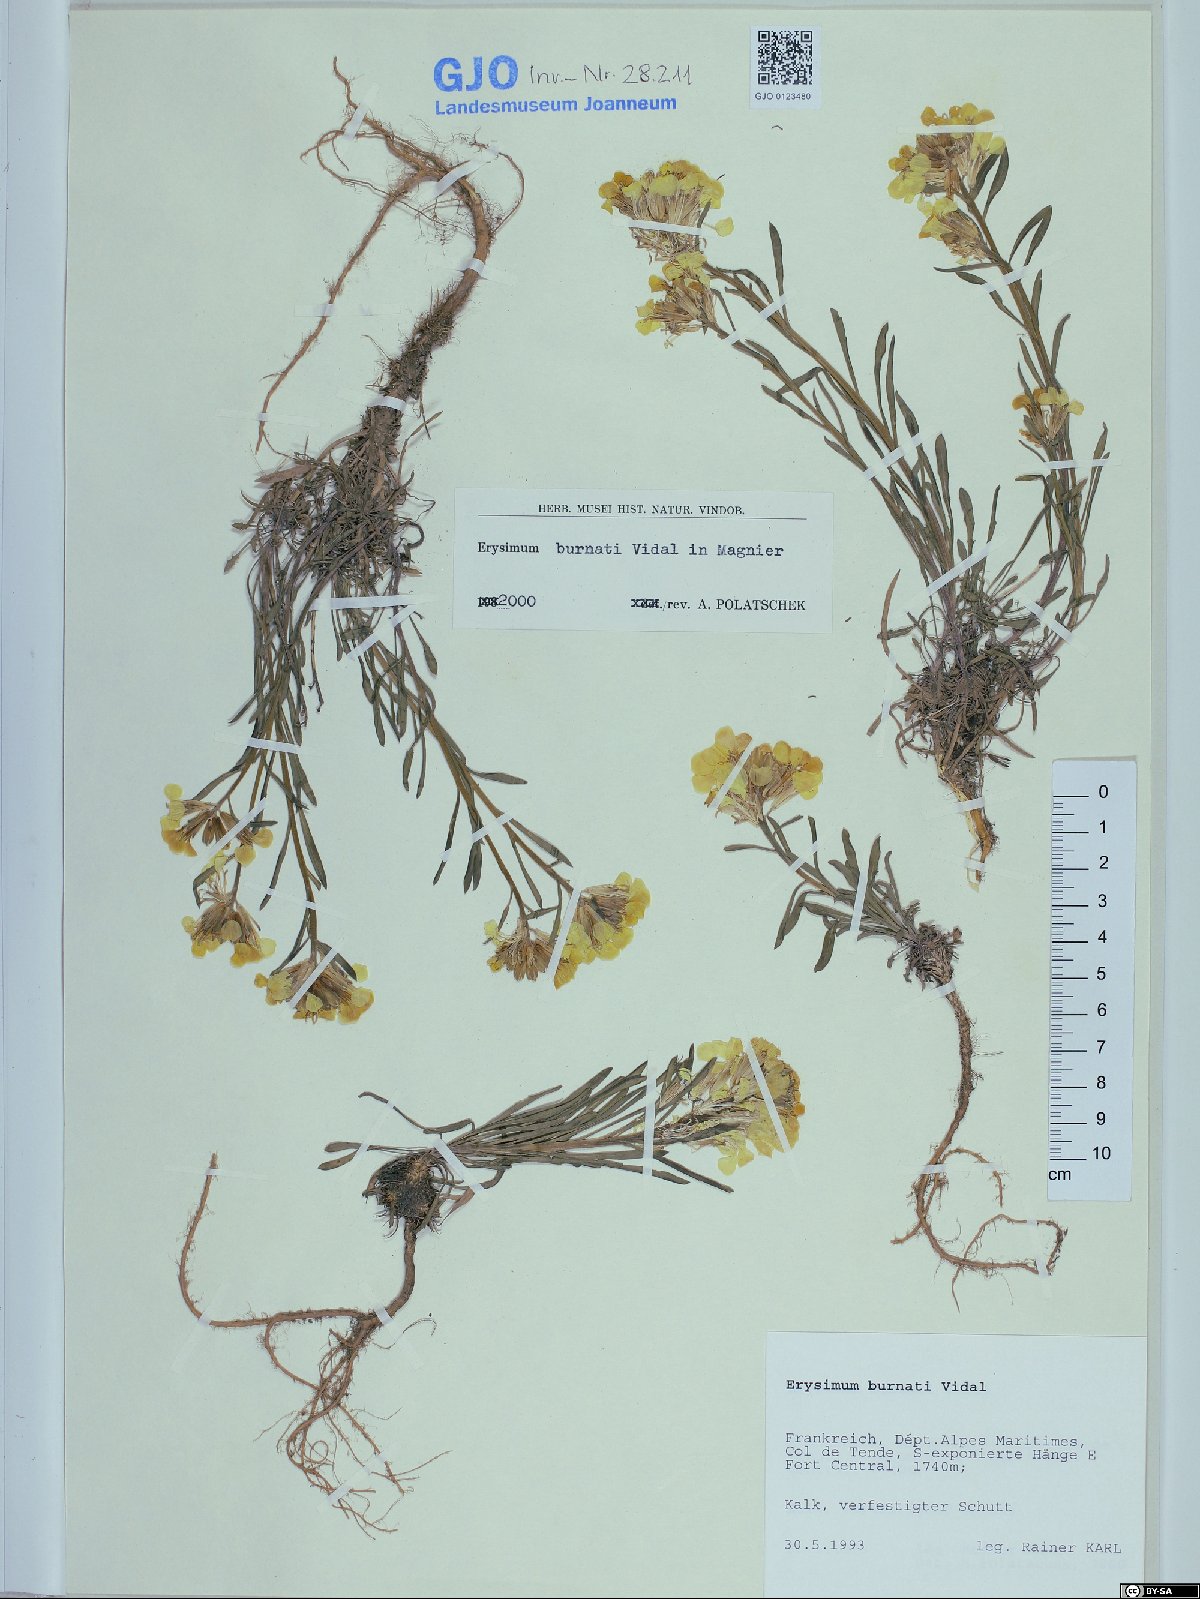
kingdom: Plantae
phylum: Tracheophyta
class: Magnoliopsida
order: Brassicales
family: Brassicaceae
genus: Erysimum
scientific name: Erysimum burnatii
